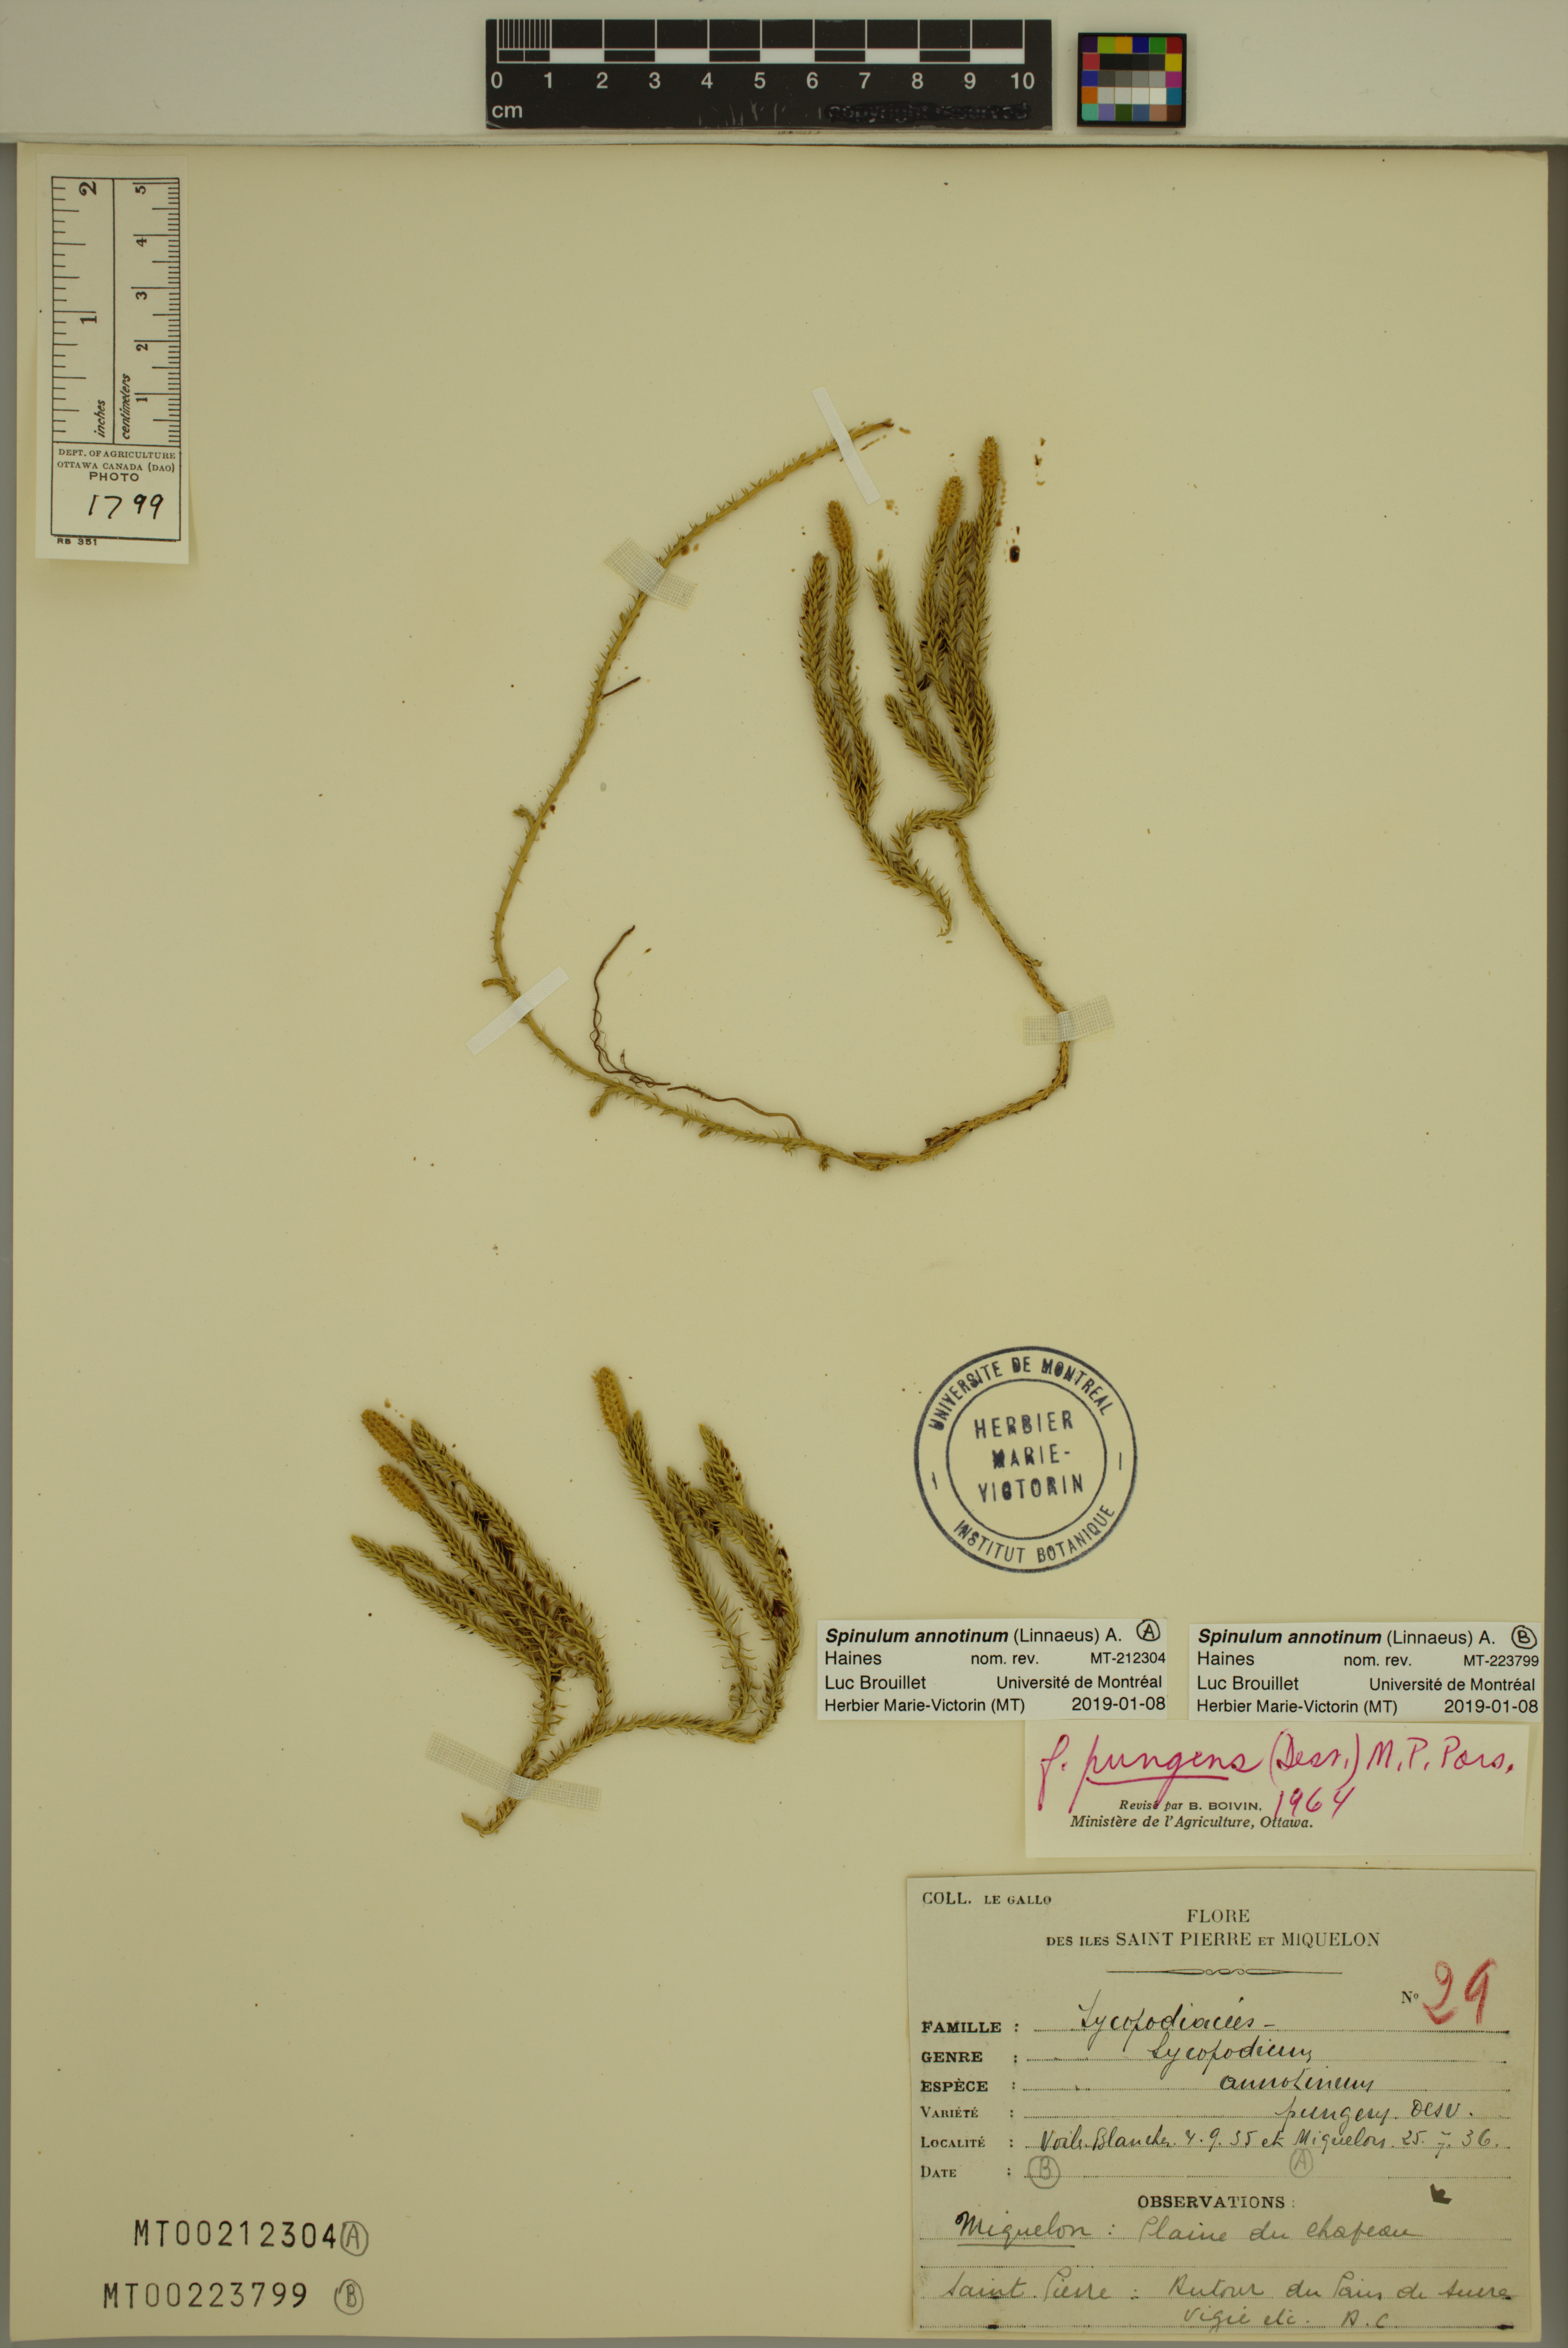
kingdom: Plantae
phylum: Tracheophyta
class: Lycopodiopsida
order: Lycopodiales
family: Lycopodiaceae
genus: Spinulum
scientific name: Spinulum annotinum
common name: Interrupted club-moss
